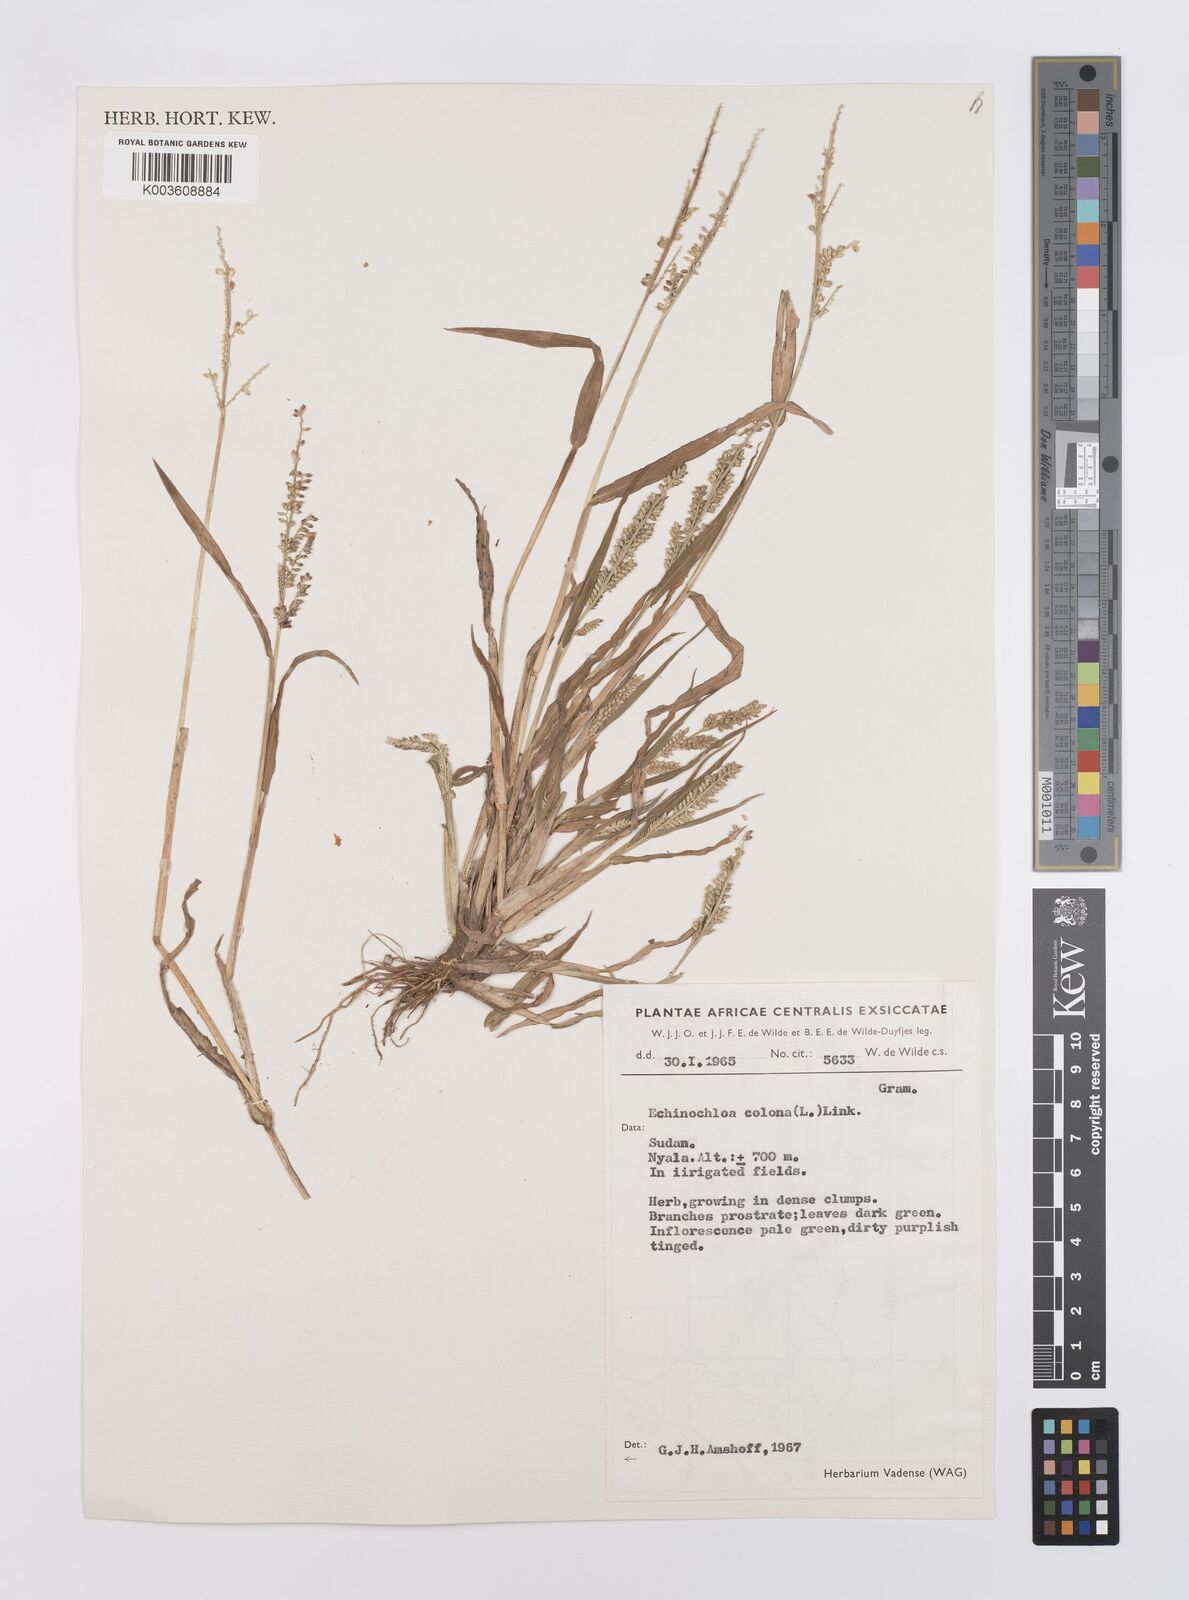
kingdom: Plantae
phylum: Tracheophyta
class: Liliopsida
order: Poales
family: Poaceae
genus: Echinochloa
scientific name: Echinochloa colonum
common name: Jungle rice
